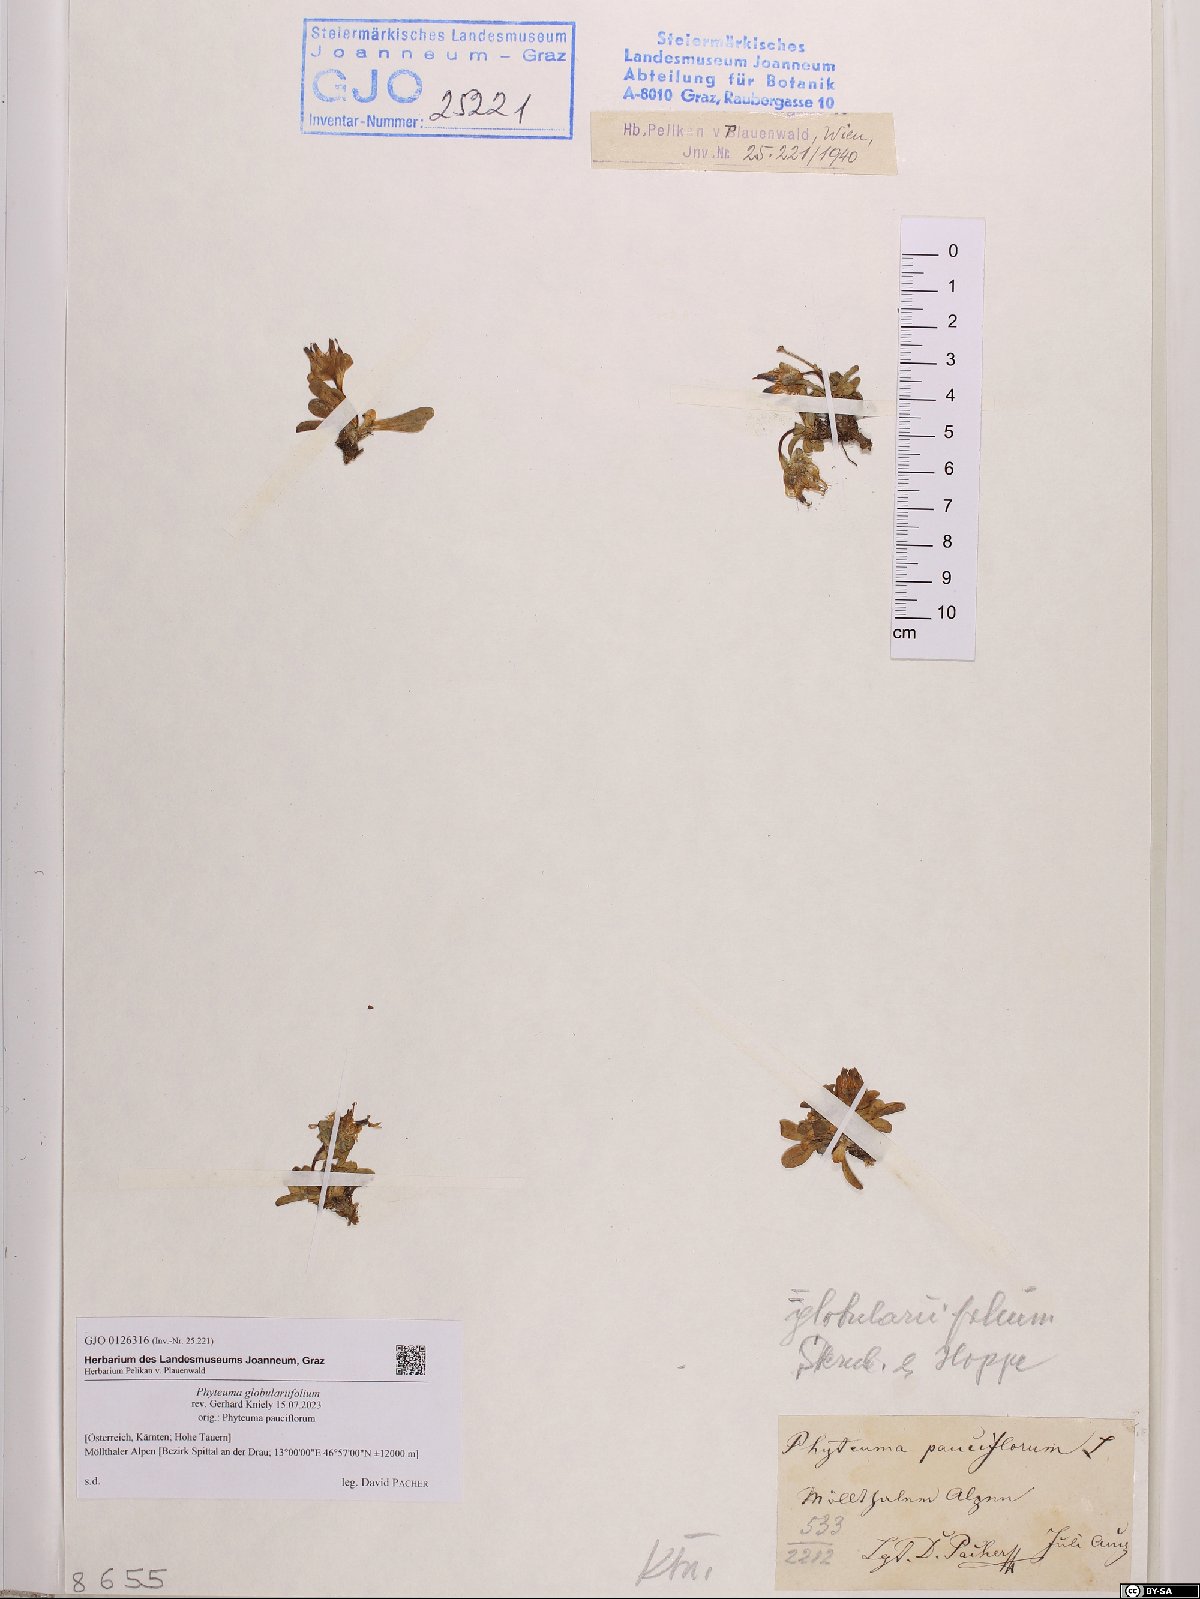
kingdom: Plantae
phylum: Tracheophyta
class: Magnoliopsida
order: Asterales
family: Campanulaceae
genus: Phyteuma
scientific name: Phyteuma globulariifolium
